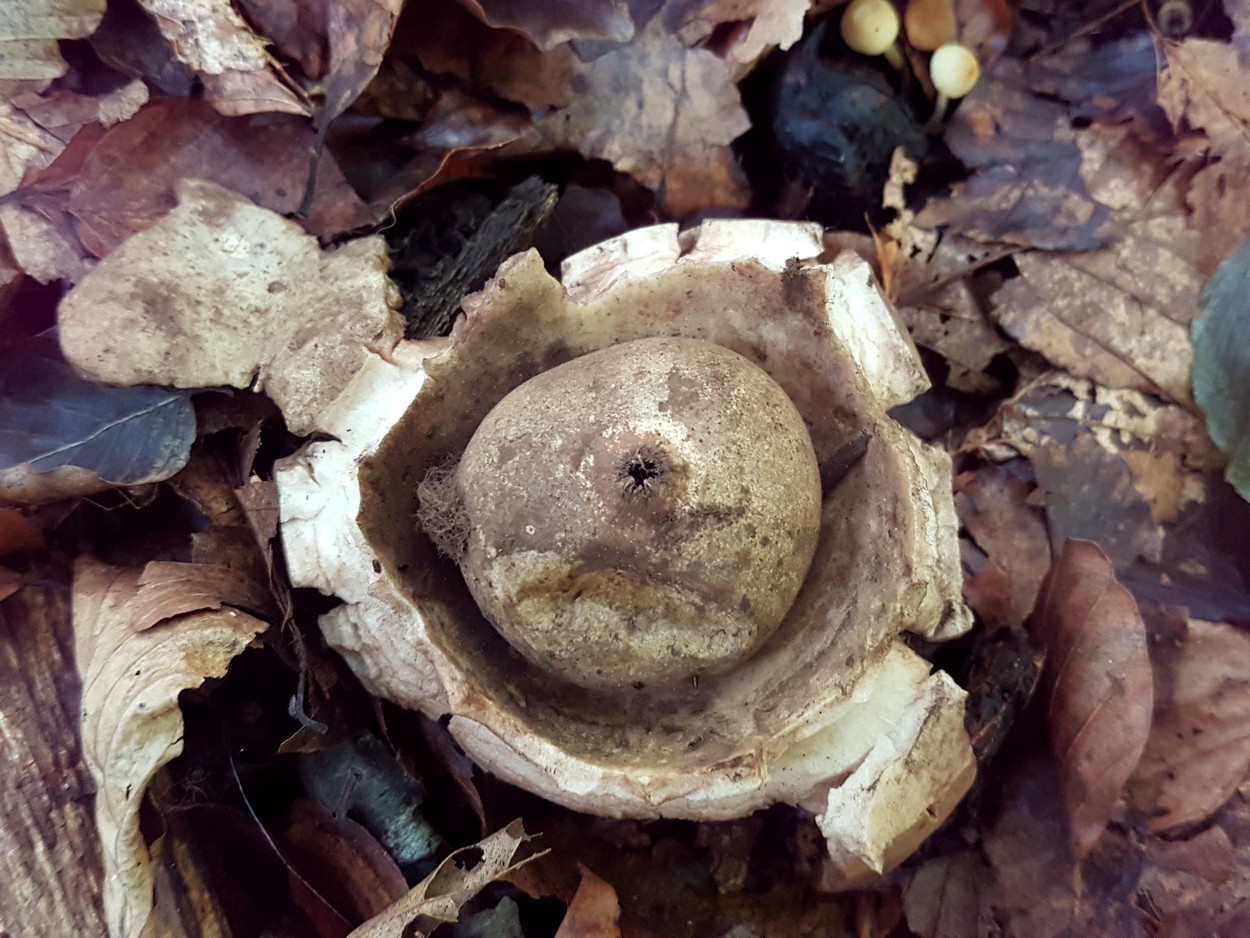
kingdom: Fungi
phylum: Basidiomycota
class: Agaricomycetes
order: Geastrales
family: Geastraceae
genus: Geastrum
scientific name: Geastrum michelianum
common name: kødet stjernebold
